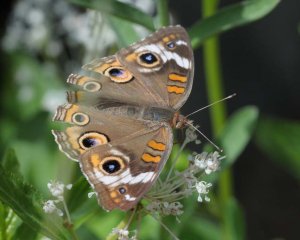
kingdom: Animalia
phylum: Arthropoda
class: Insecta
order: Lepidoptera
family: Nymphalidae
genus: Junonia
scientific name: Junonia coenia
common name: Common Buckeye
